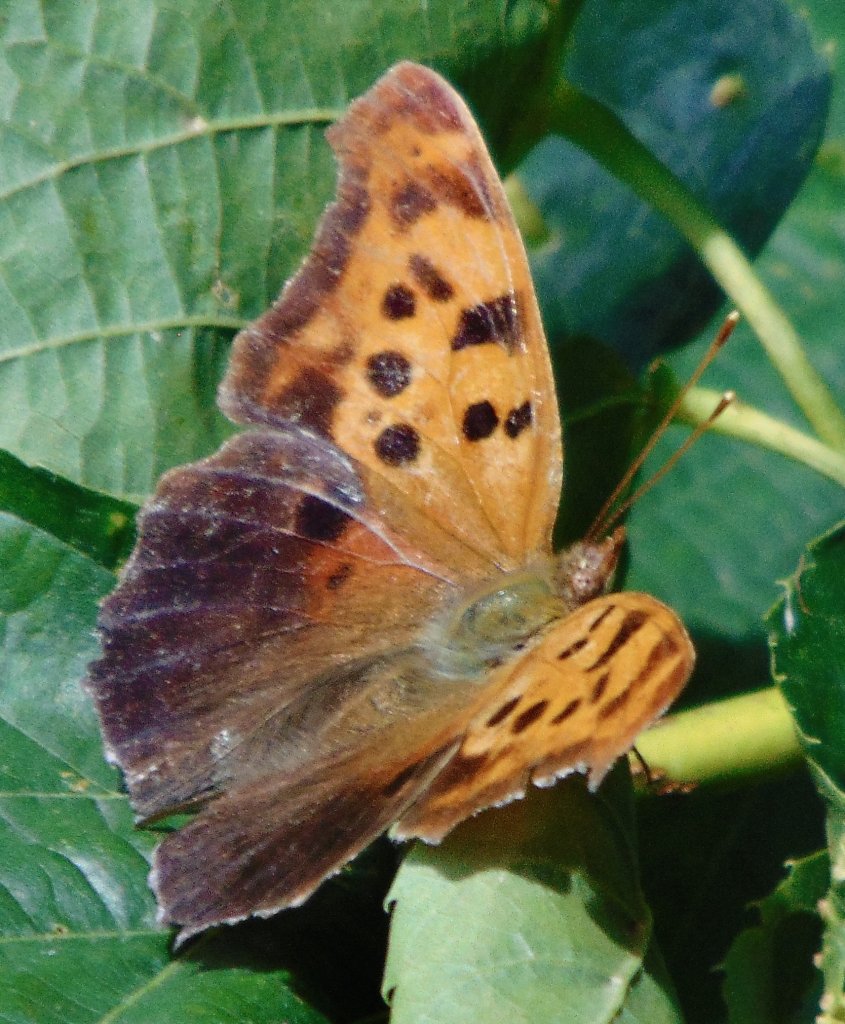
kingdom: Animalia
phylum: Arthropoda
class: Insecta
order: Lepidoptera
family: Nymphalidae
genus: Polygonia
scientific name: Polygonia interrogationis
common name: Question Mark
